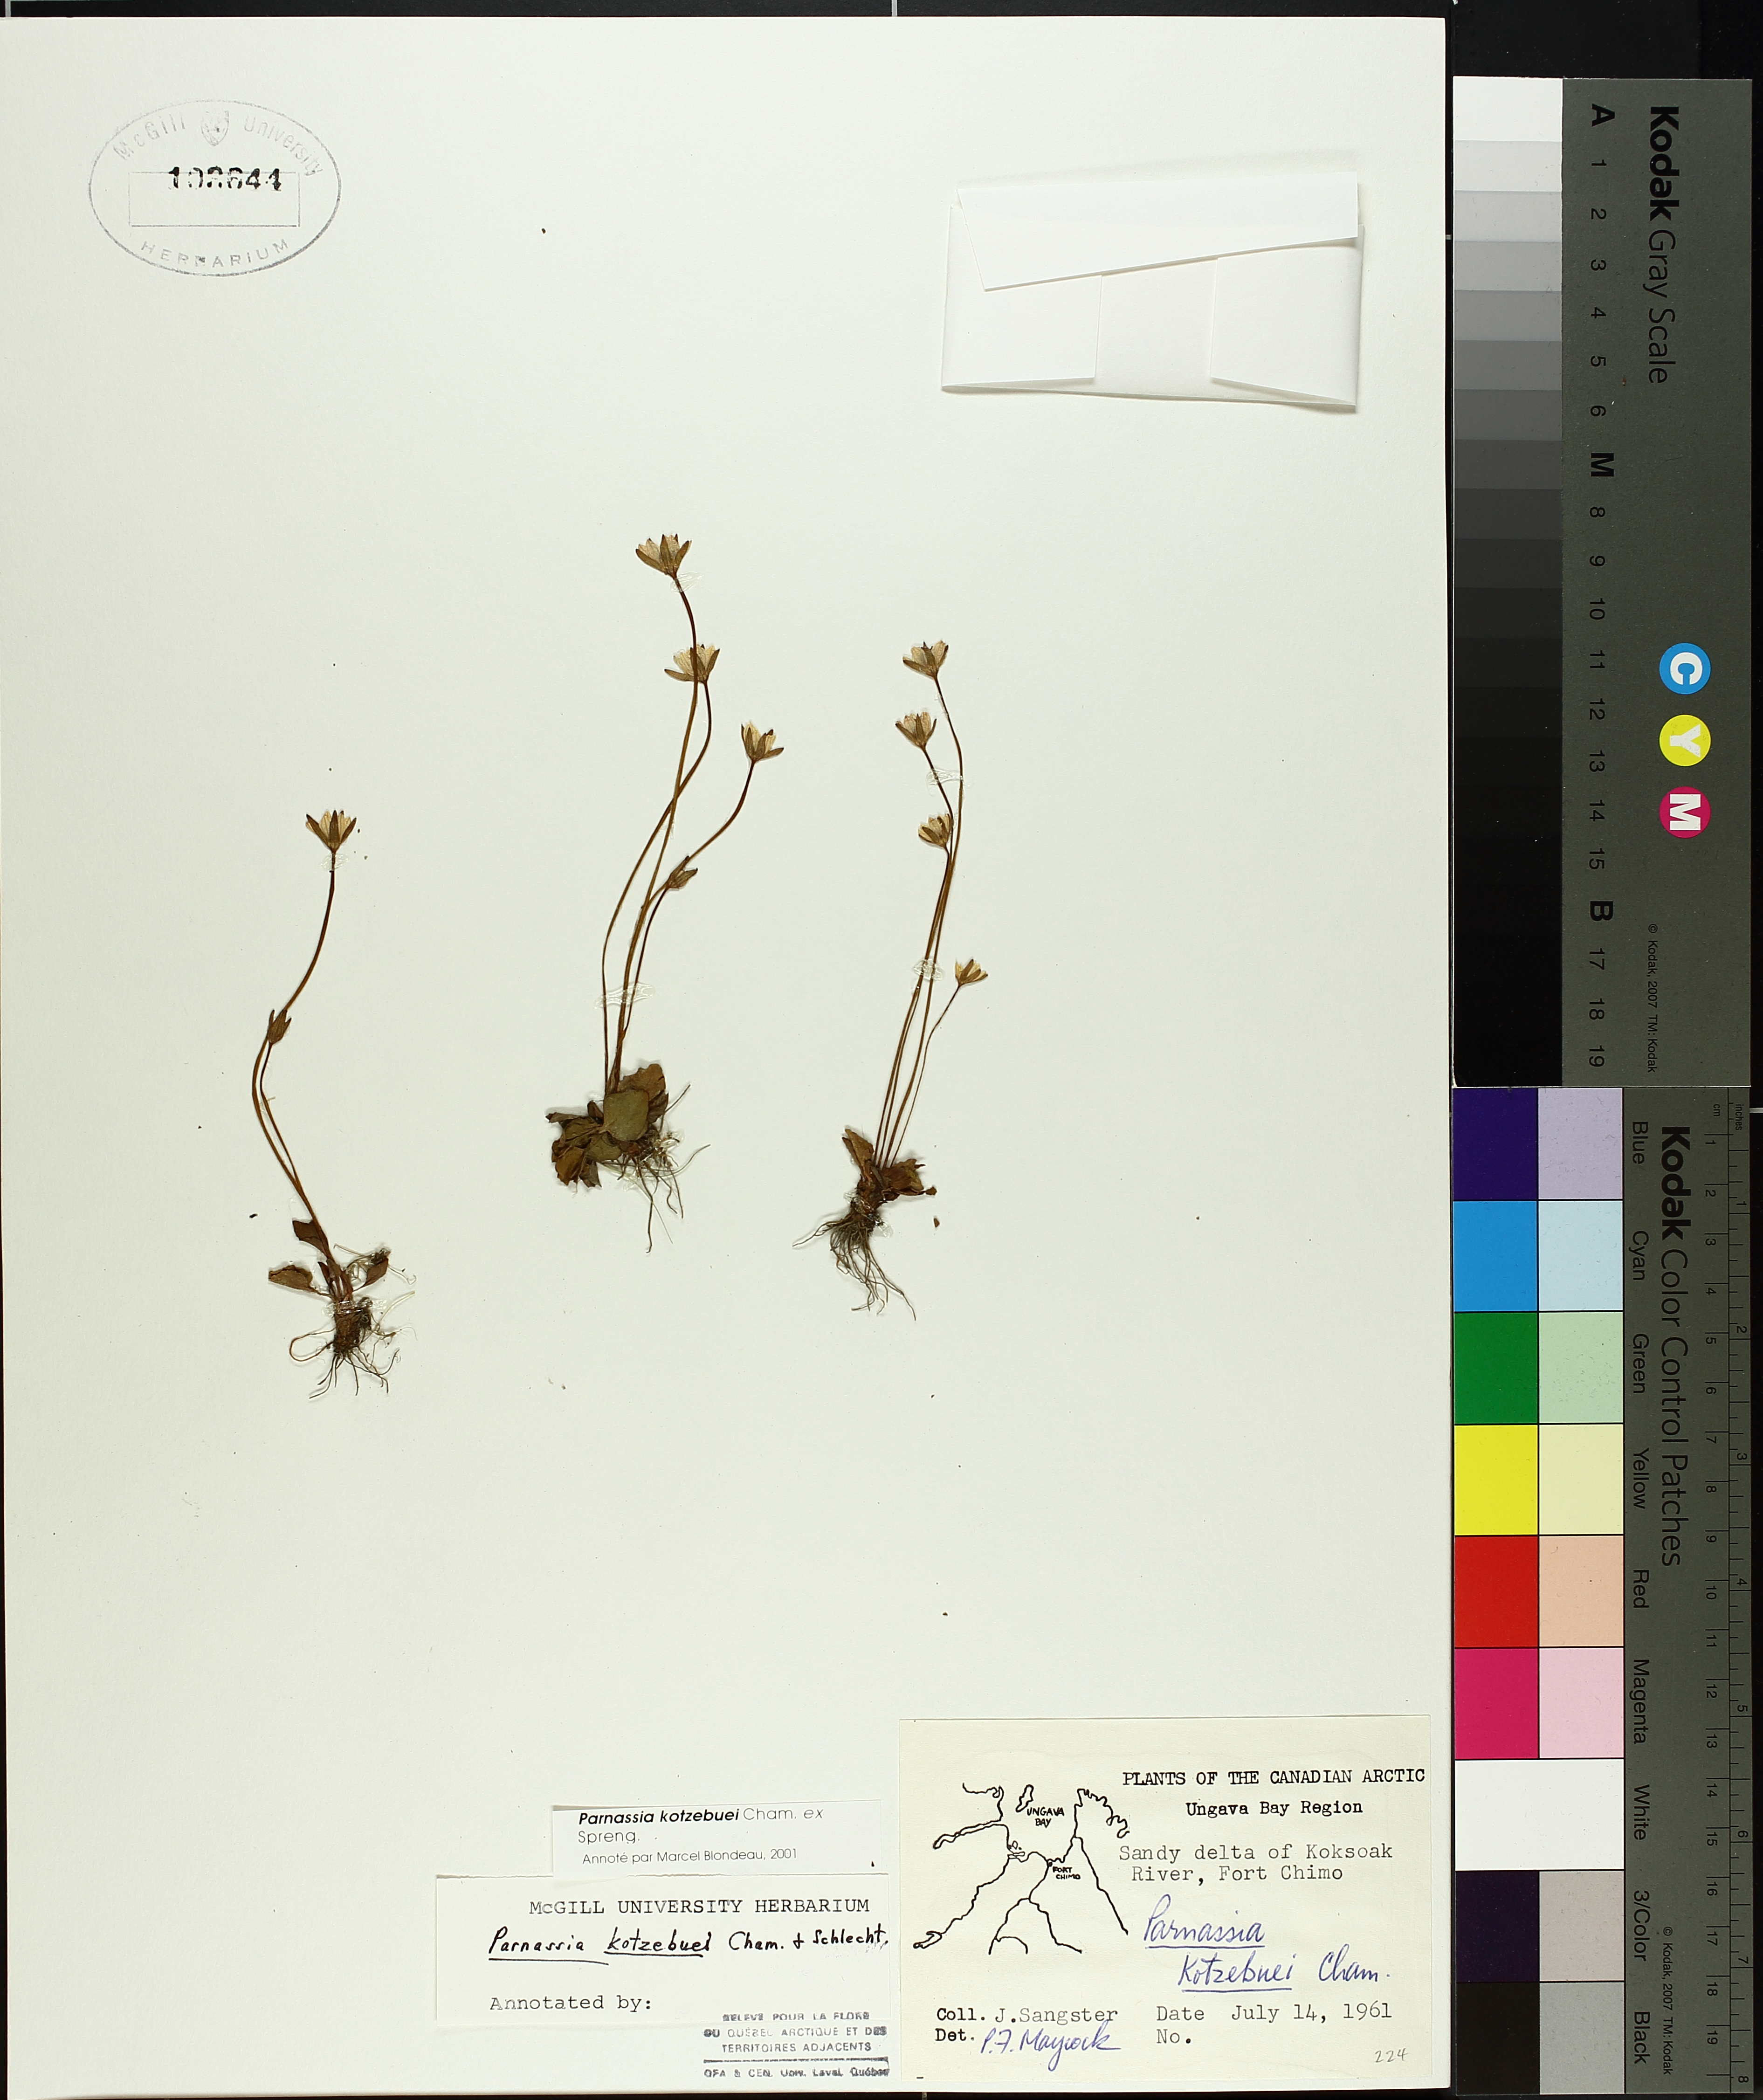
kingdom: Plantae
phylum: Tracheophyta
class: Liliopsida
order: Poales
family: Cyperaceae
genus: Carex
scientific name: Carex magellanica
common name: Bog sedge
